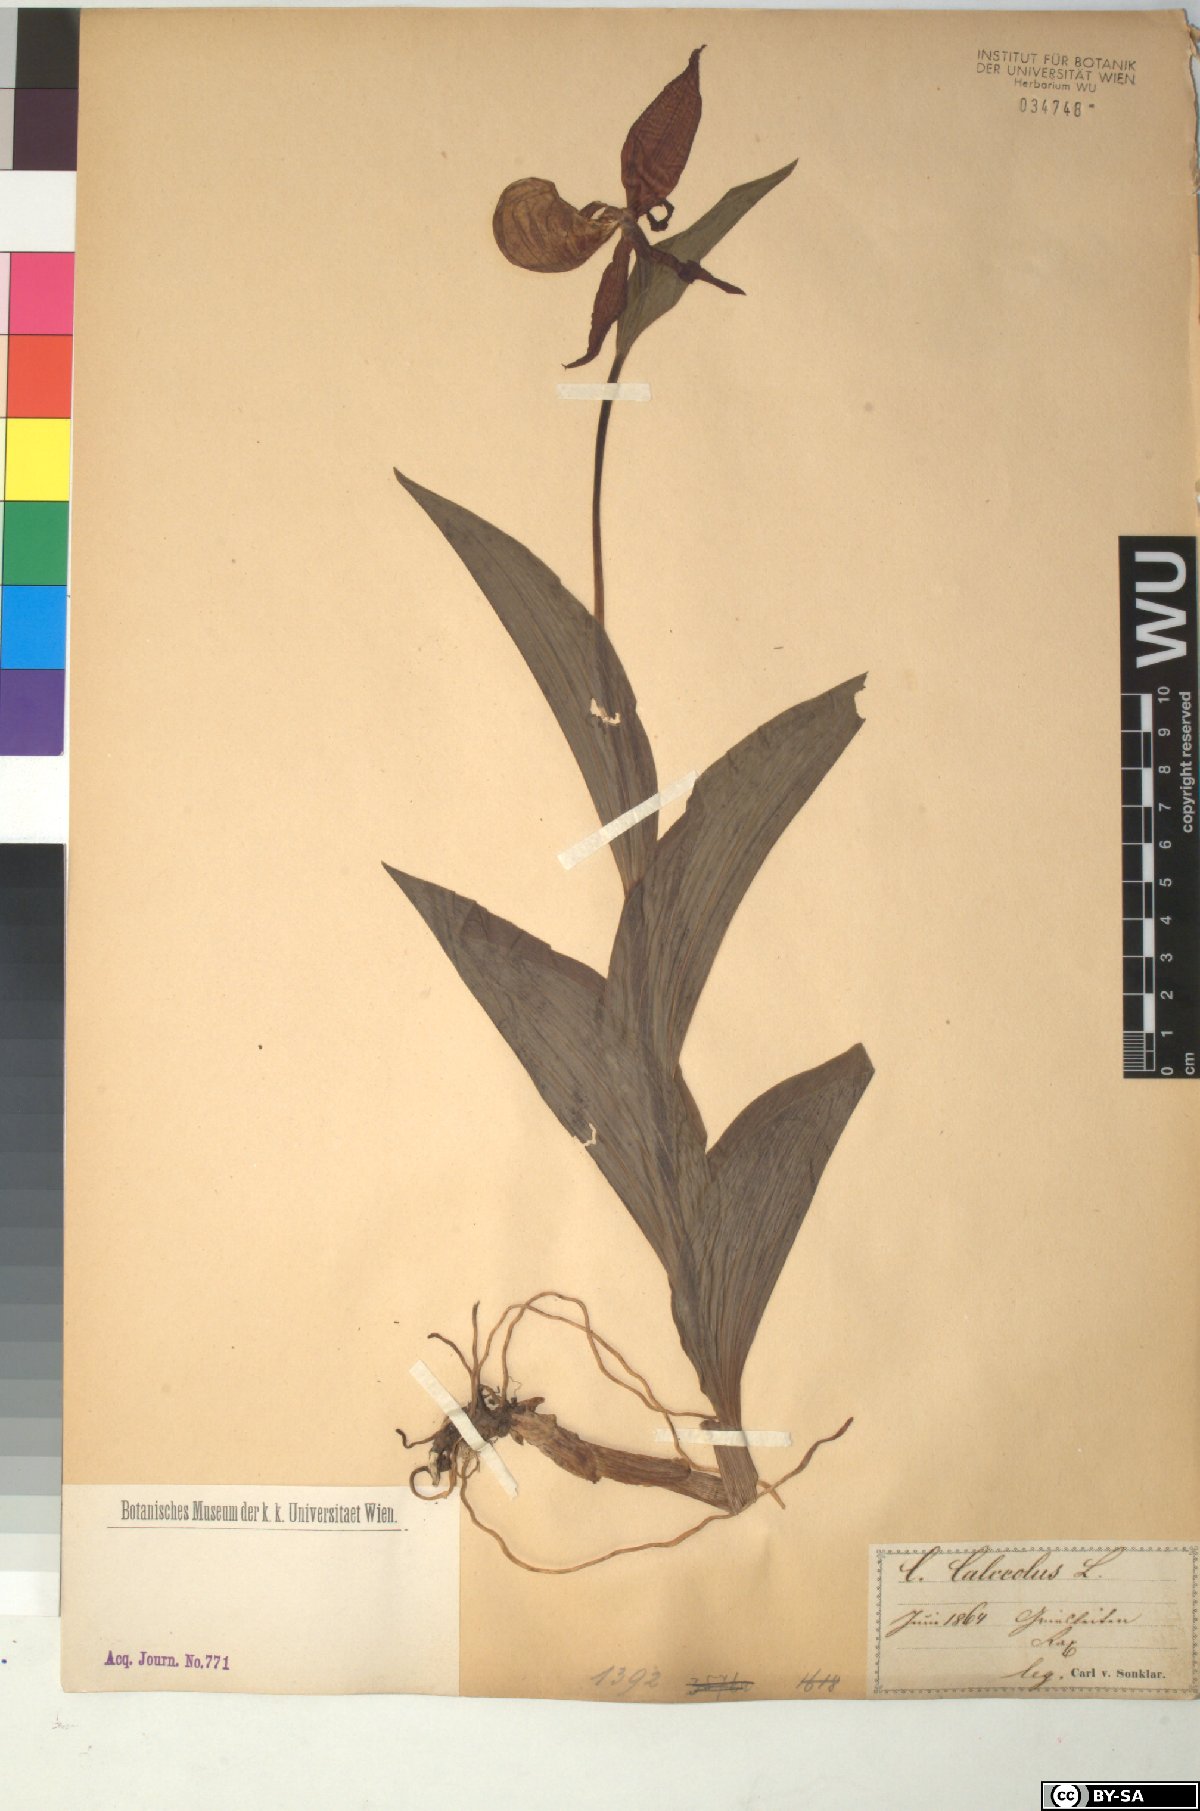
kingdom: Plantae
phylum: Tracheophyta
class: Liliopsida
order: Asparagales
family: Orchidaceae
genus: Cypripedium
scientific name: Cypripedium calceolus
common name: Lady's-slipper
